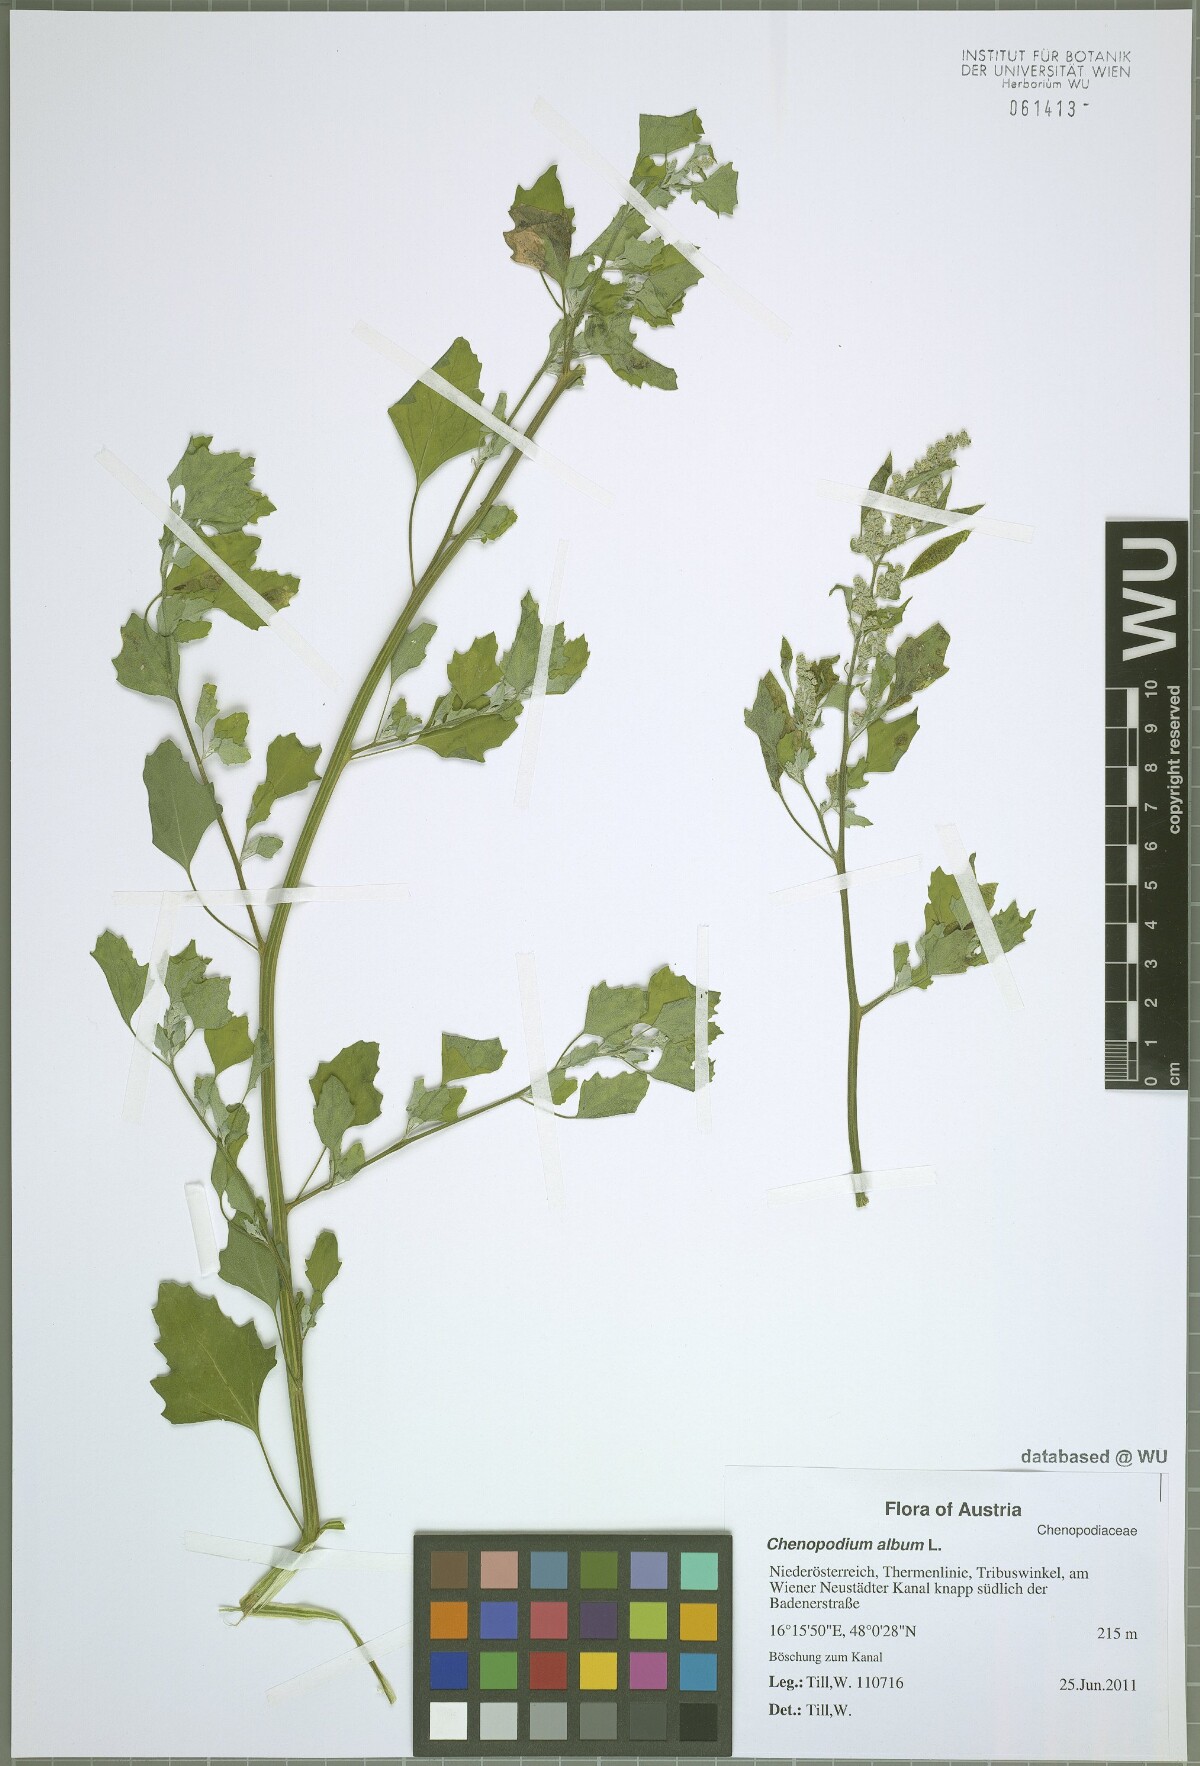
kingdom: Plantae
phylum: Tracheophyta
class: Magnoliopsida
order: Caryophyllales
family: Amaranthaceae
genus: Chenopodium
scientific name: Chenopodium album
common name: Fat-hen
